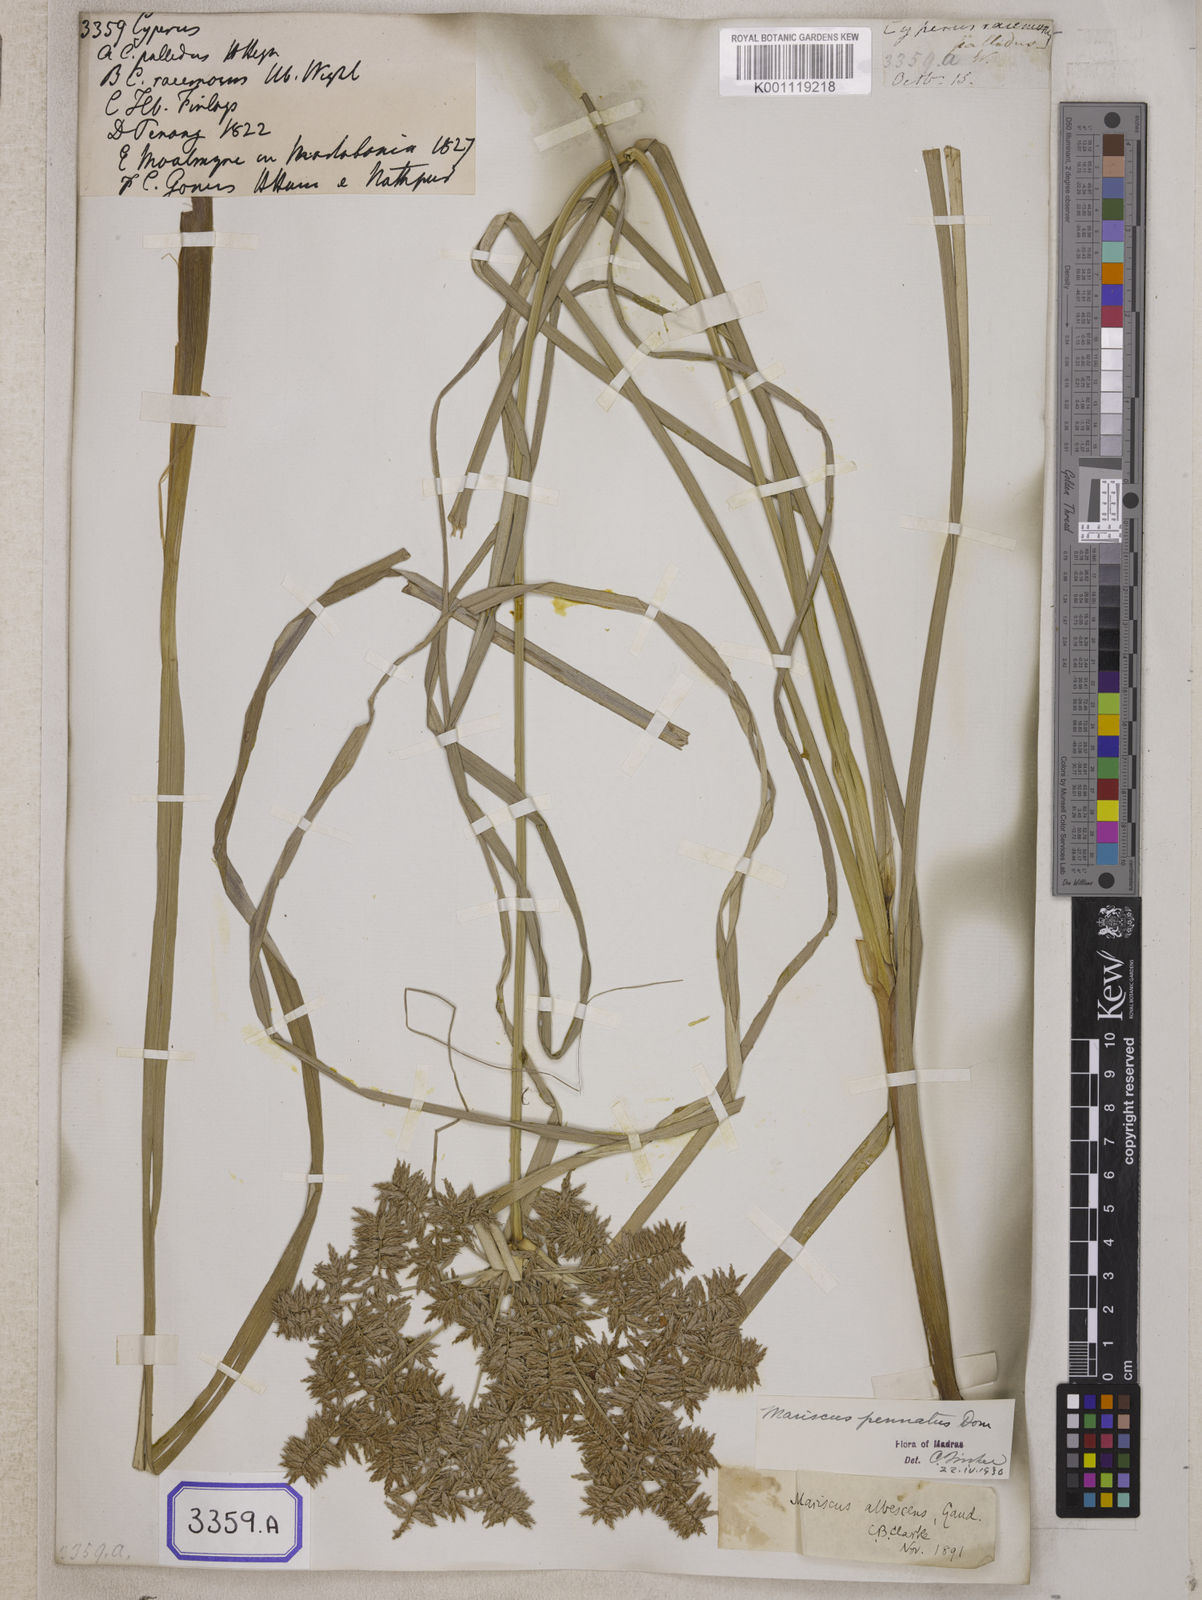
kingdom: Plantae
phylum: Tracheophyta
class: Liliopsida
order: Poales
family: Cyperaceae
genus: Cyperus
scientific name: Cyperus
